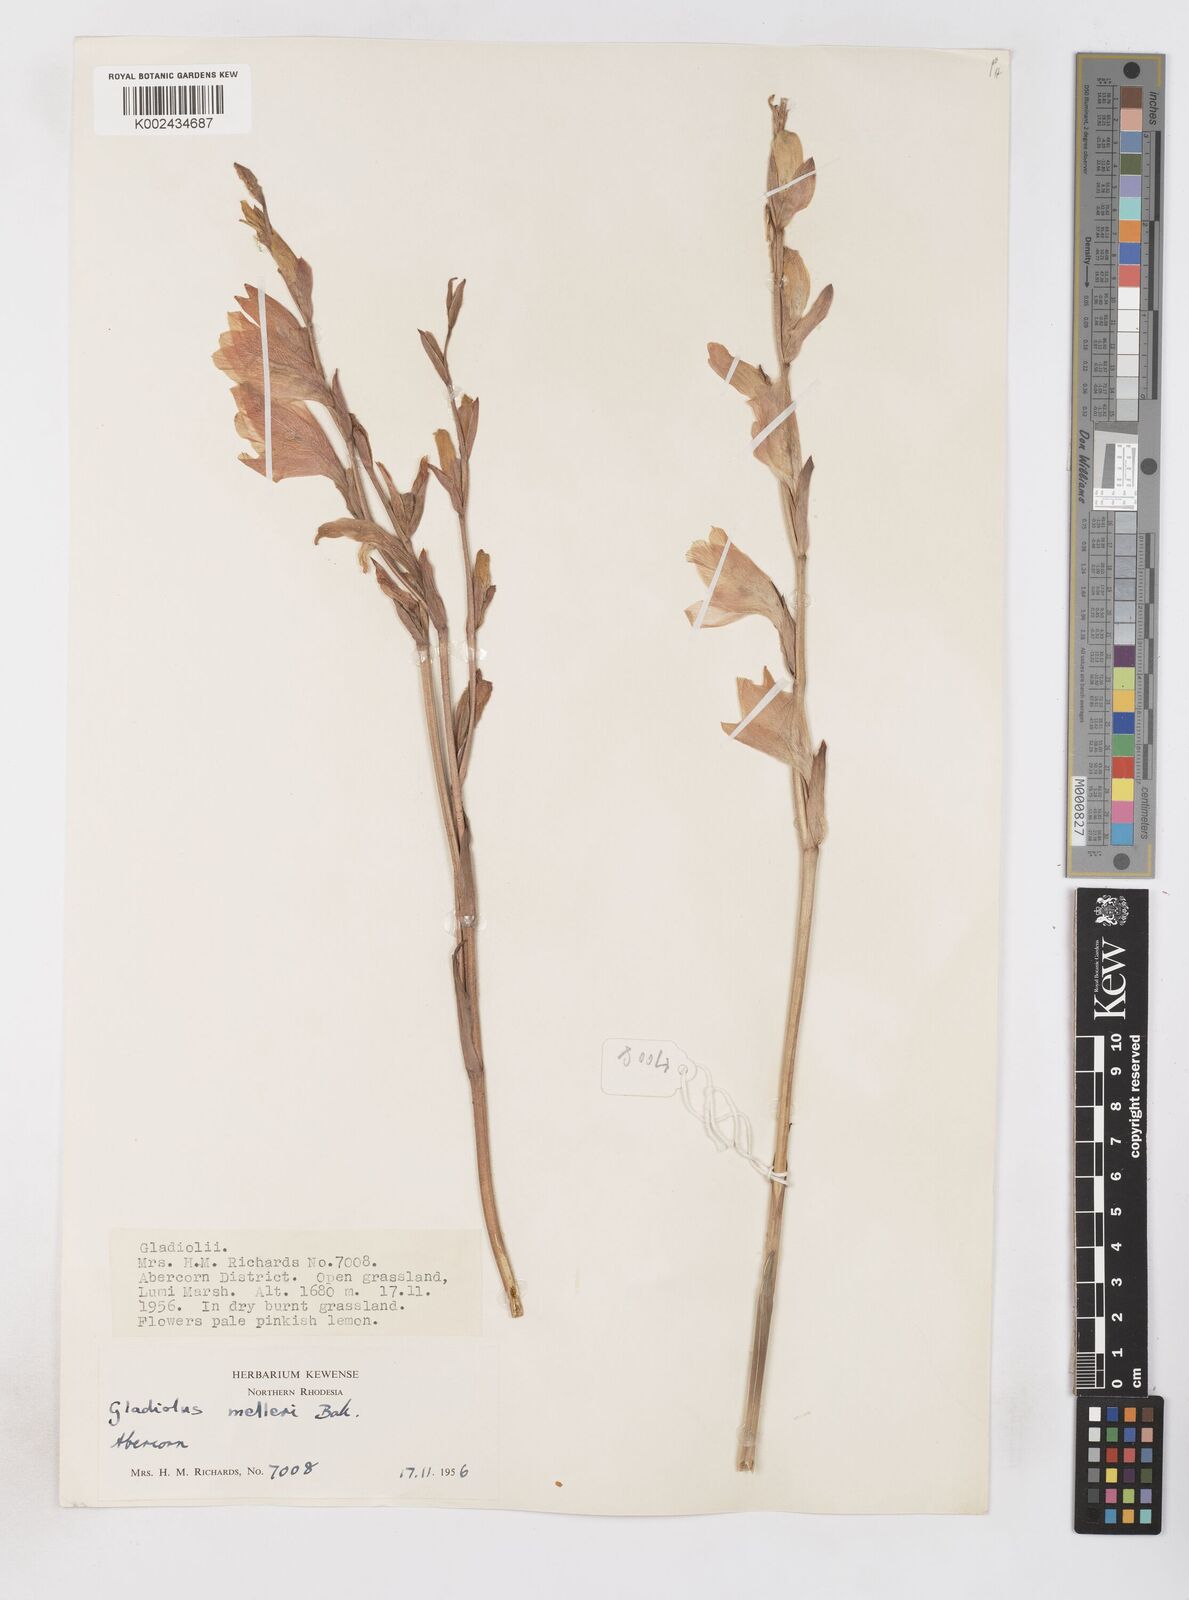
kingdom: Plantae
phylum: Tracheophyta
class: Liliopsida
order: Asparagales
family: Iridaceae
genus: Gladiolus
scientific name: Gladiolus melleri
